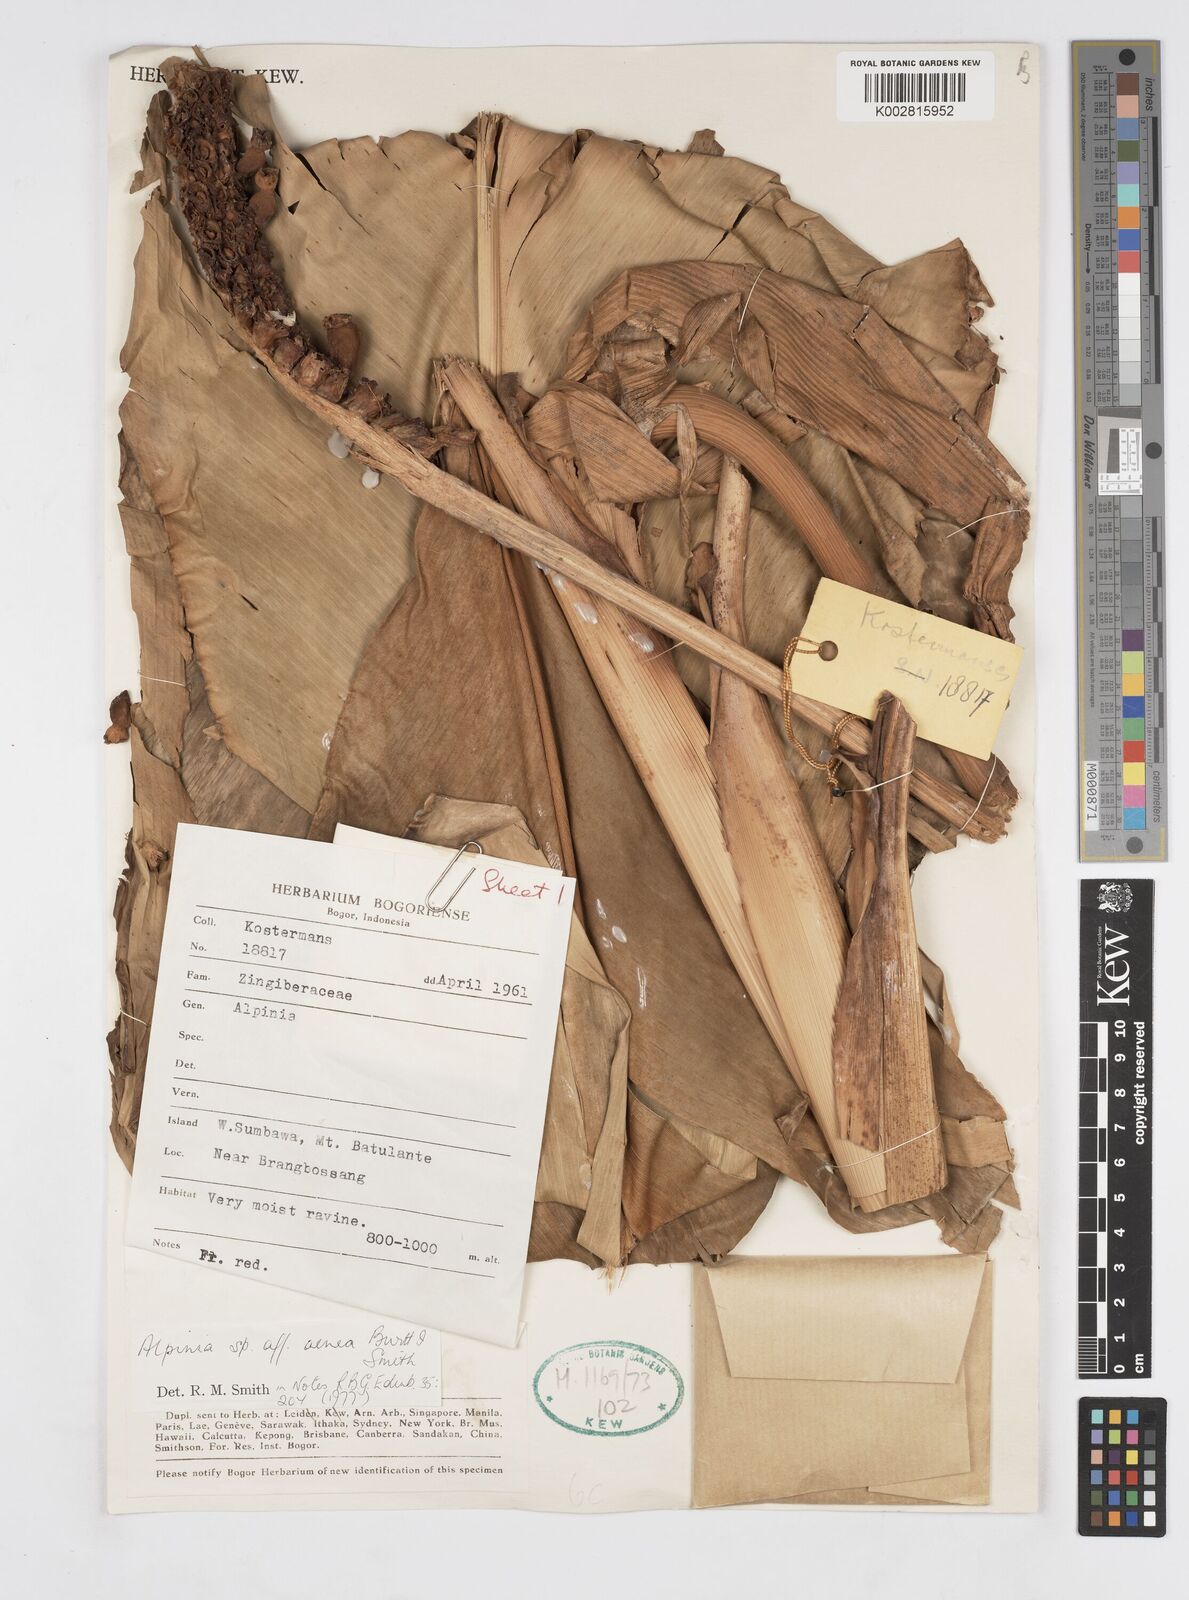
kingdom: Plantae
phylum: Tracheophyta
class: Liliopsida
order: Zingiberales
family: Zingiberaceae
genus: Alpinia
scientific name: Alpinia aenea
